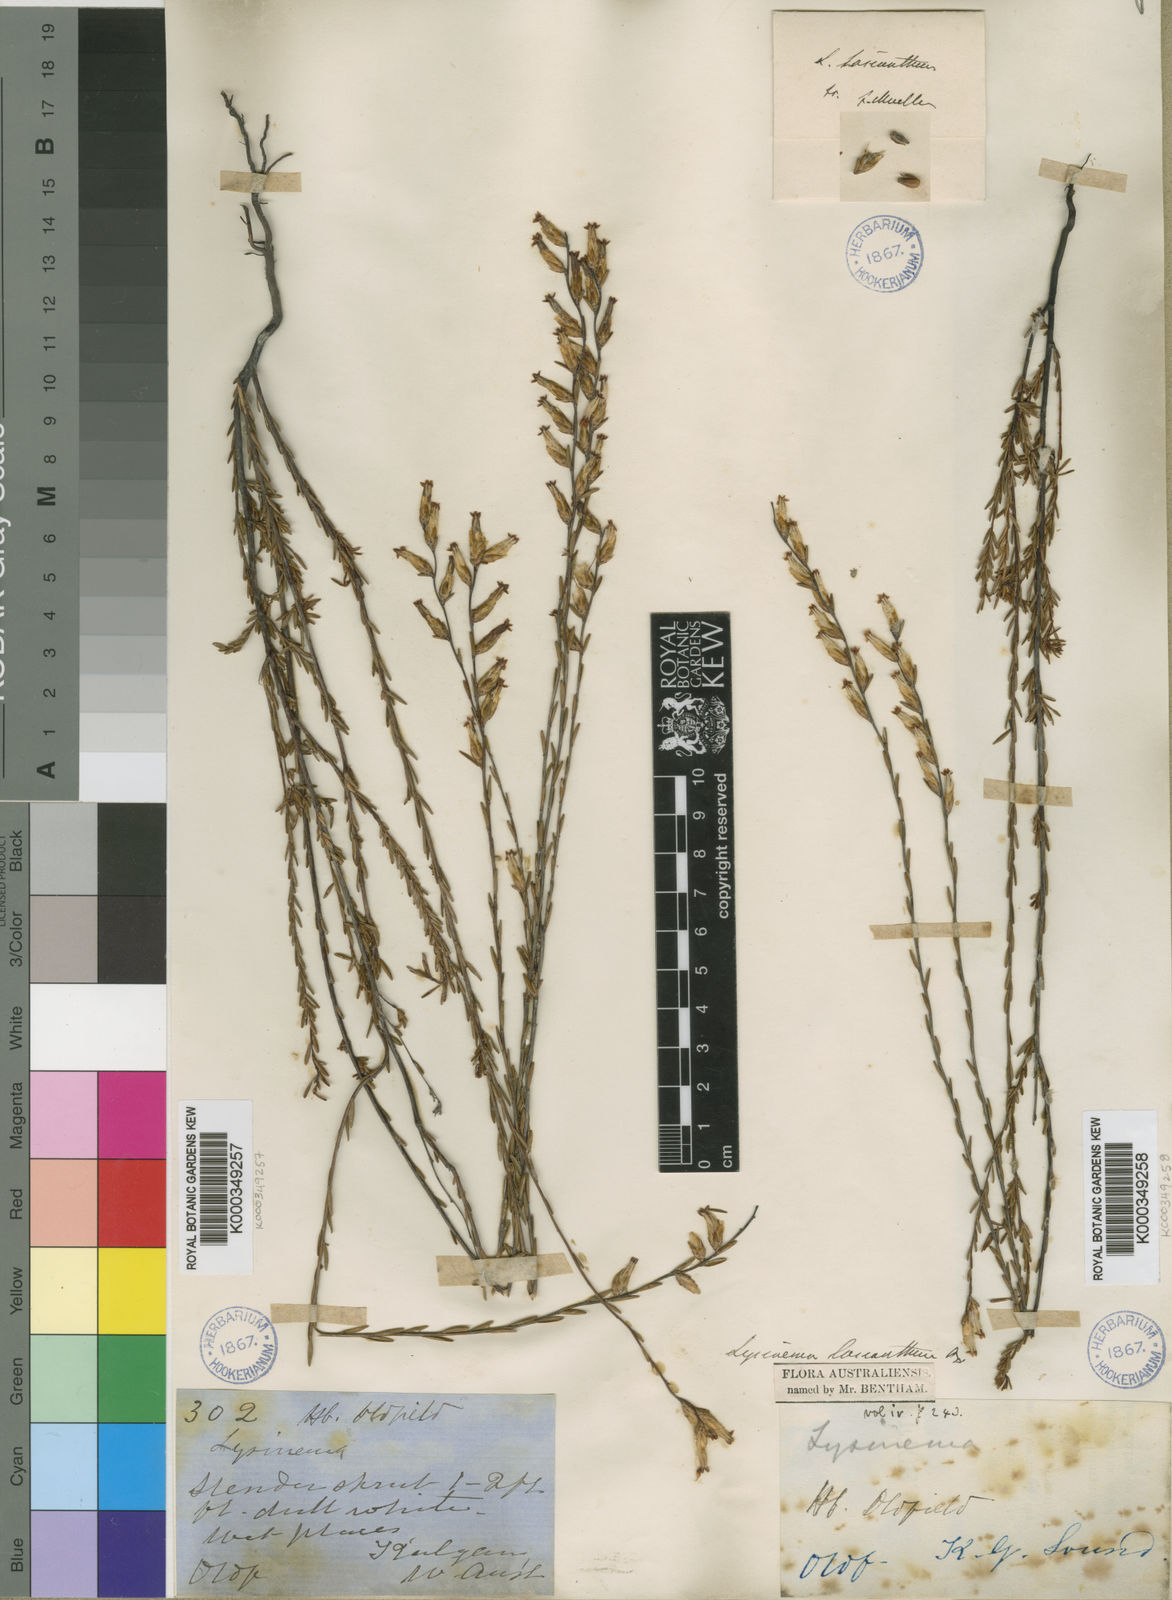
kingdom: Plantae
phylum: Tracheophyta
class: Magnoliopsida
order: Ericales
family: Ericaceae
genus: Lysinema
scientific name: Lysinema
